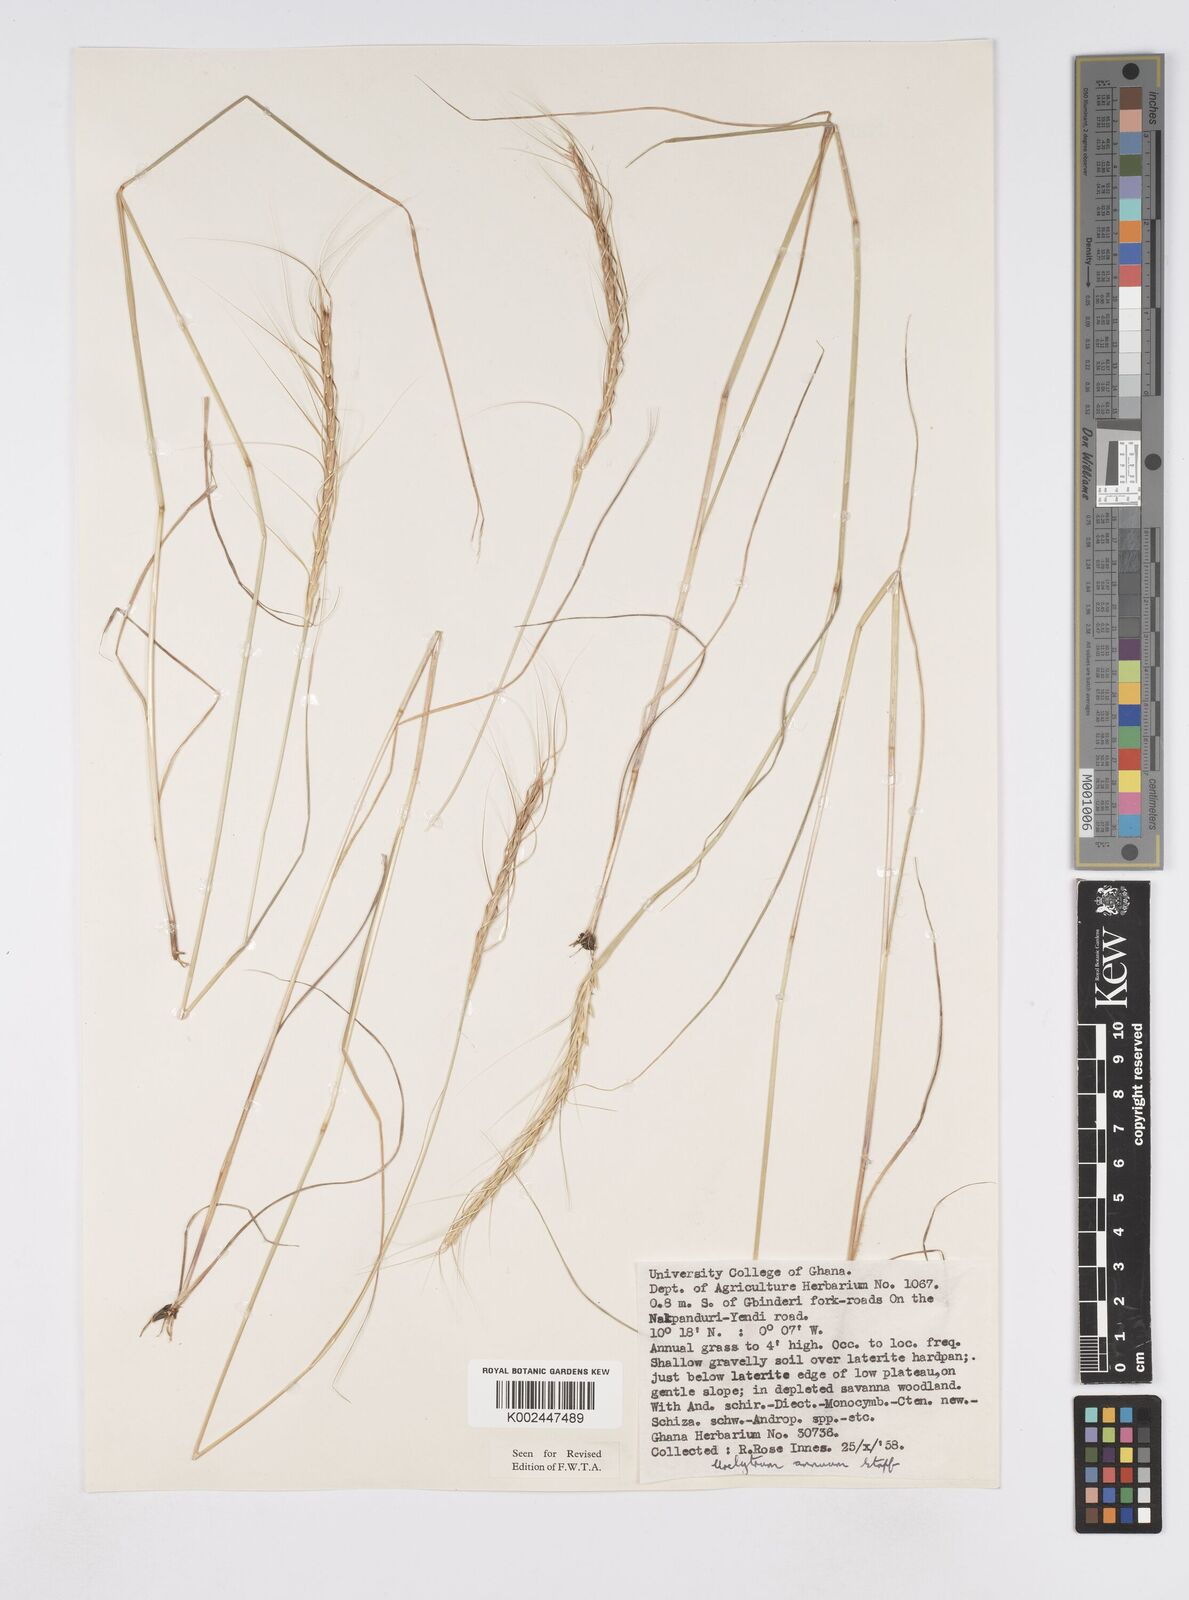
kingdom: Plantae
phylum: Tracheophyta
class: Liliopsida
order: Poales
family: Poaceae
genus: Urelytrum
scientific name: Urelytrum annuum
